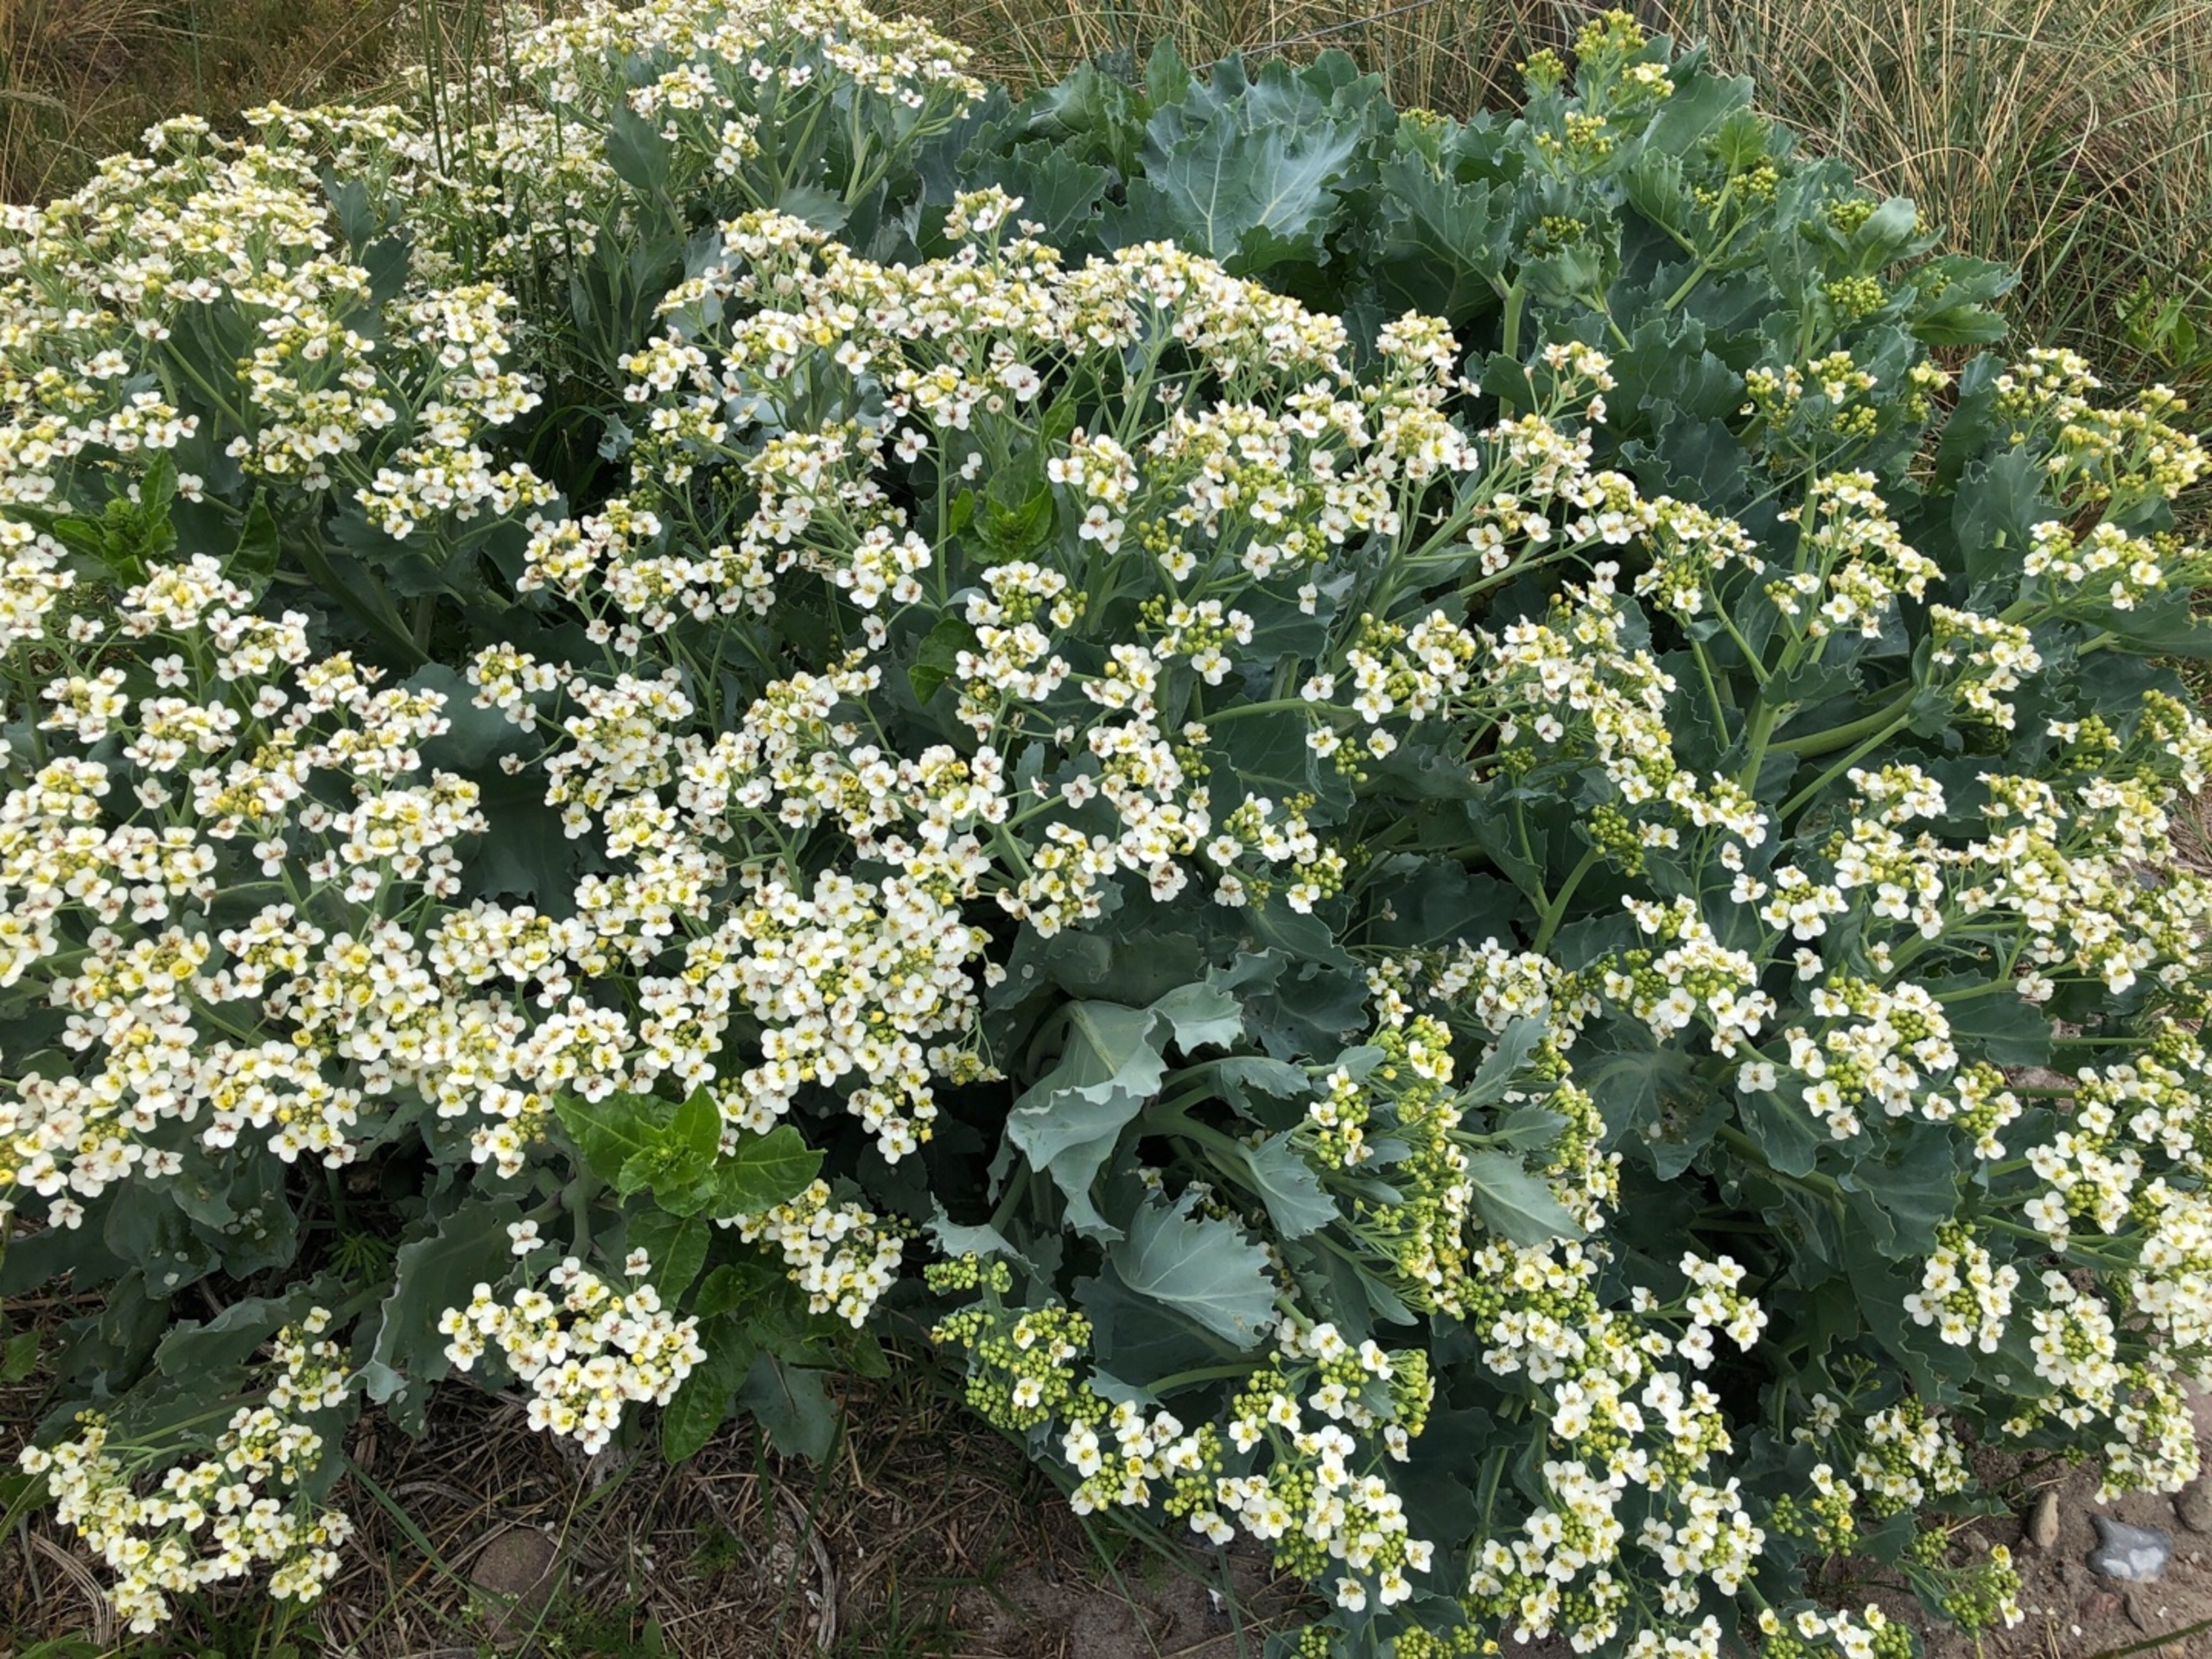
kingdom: Plantae
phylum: Tracheophyta
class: Magnoliopsida
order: Brassicales
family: Brassicaceae
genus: Crambe
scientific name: Crambe maritima
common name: Strandkål
